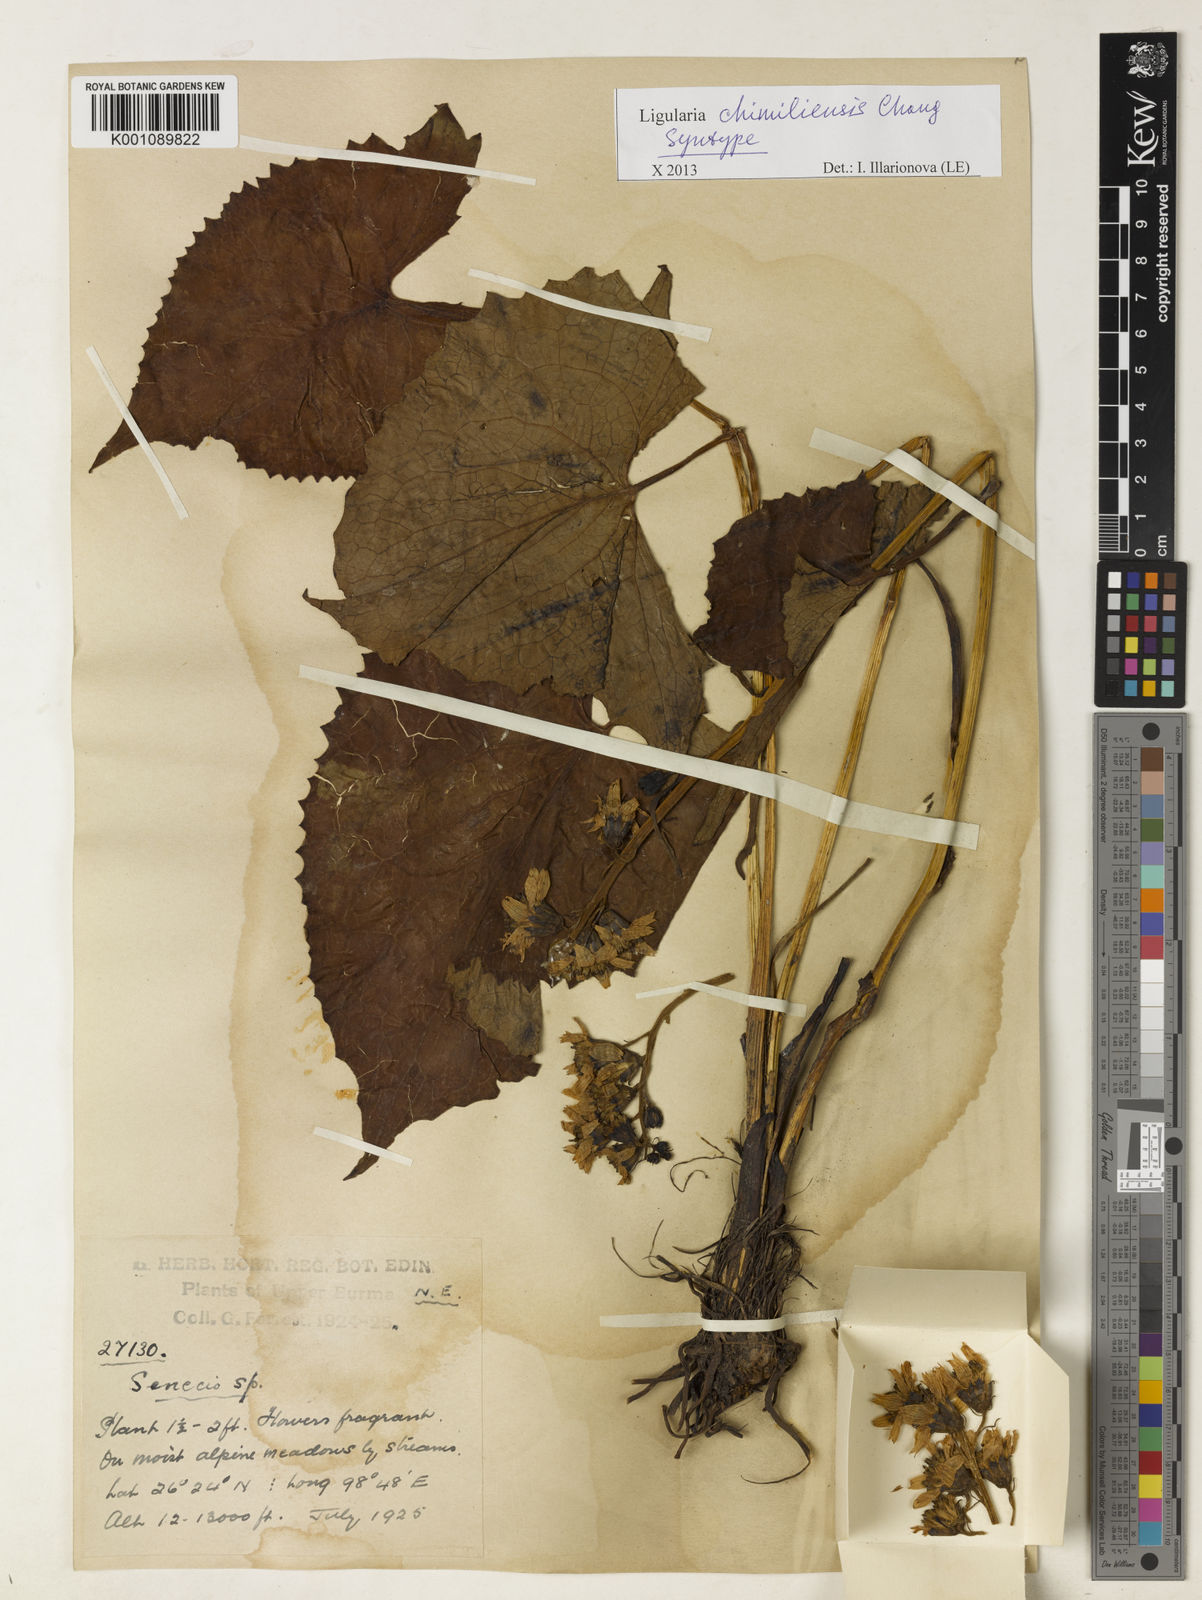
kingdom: Plantae
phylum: Tracheophyta
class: Magnoliopsida
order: Asterales
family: Asteraceae
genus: Ligularia
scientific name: Ligularia chimiliensis
